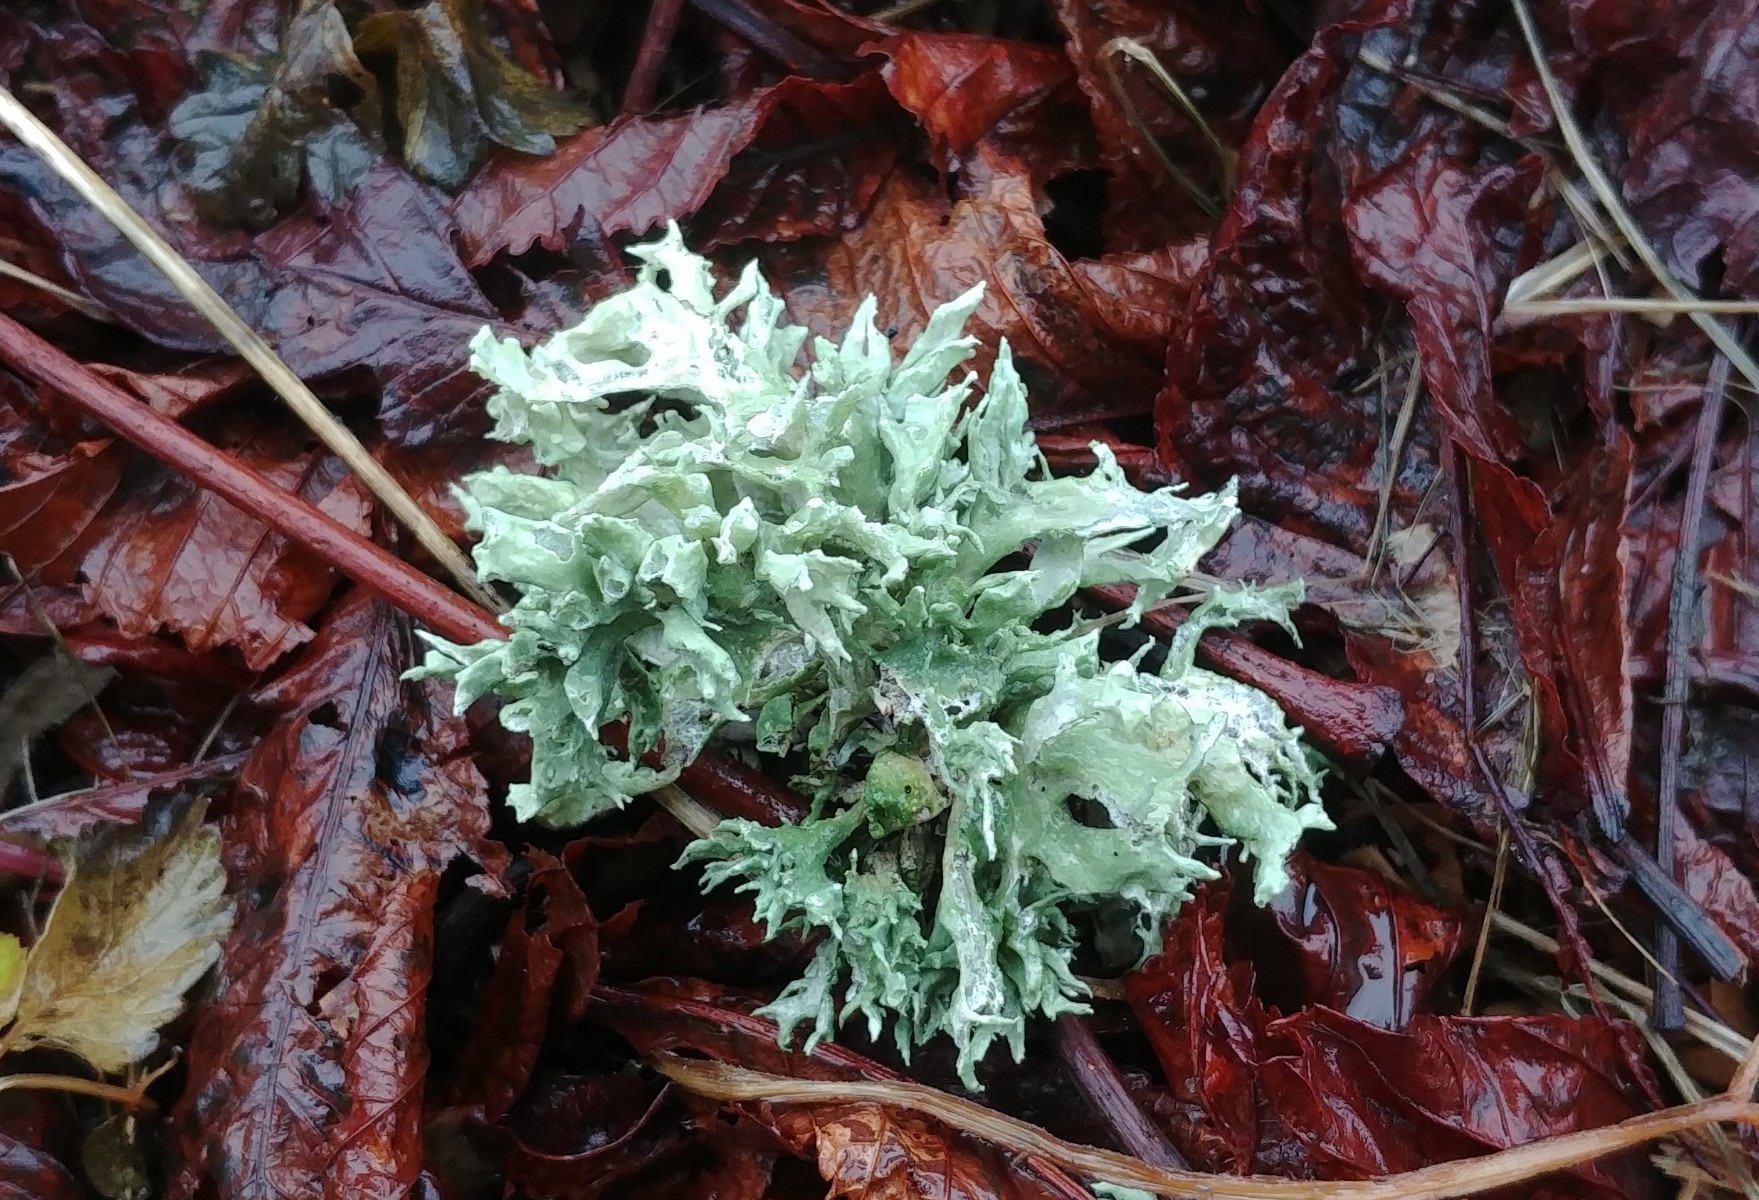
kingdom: Fungi
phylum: Ascomycota
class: Lecanoromycetes
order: Lecanorales
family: Ramalinaceae
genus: Ramalina
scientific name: Ramalina fastigiata
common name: tue-grenlav
